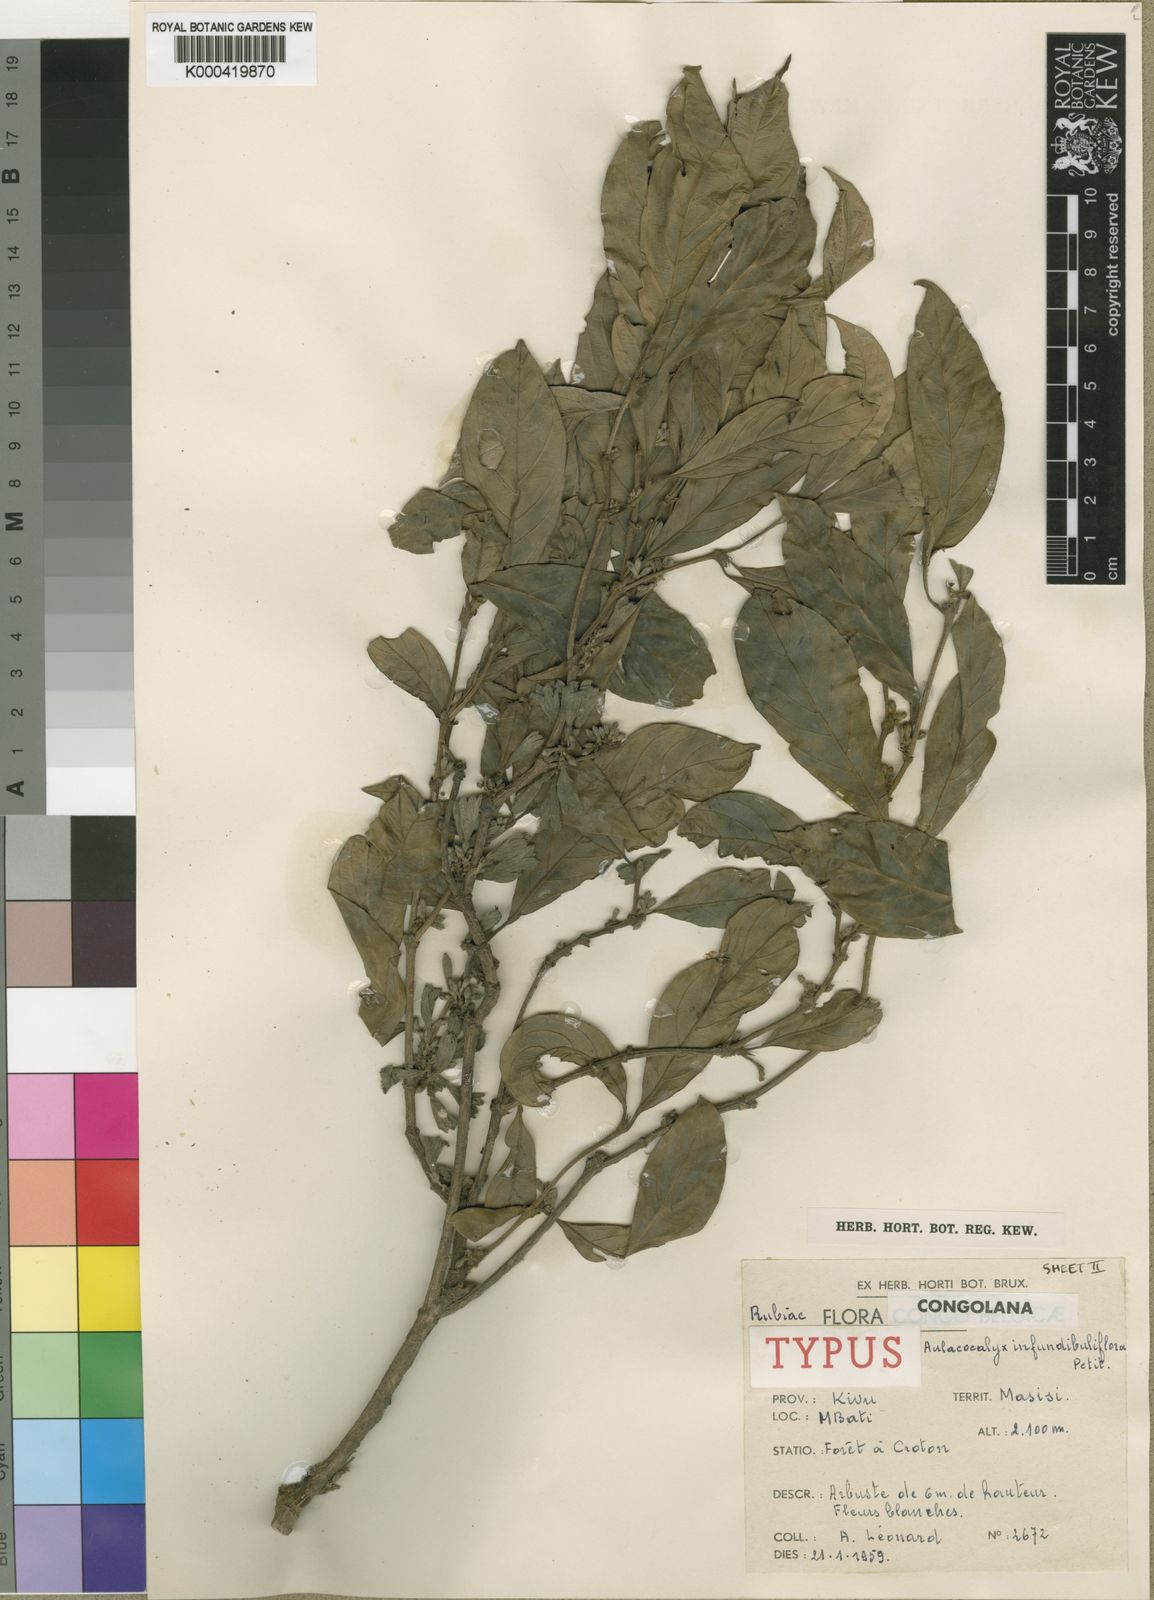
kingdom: Plantae
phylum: Tracheophyta
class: Magnoliopsida
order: Gentianales
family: Rubiaceae
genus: Heinsenia
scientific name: Heinsenia diervilleoides
